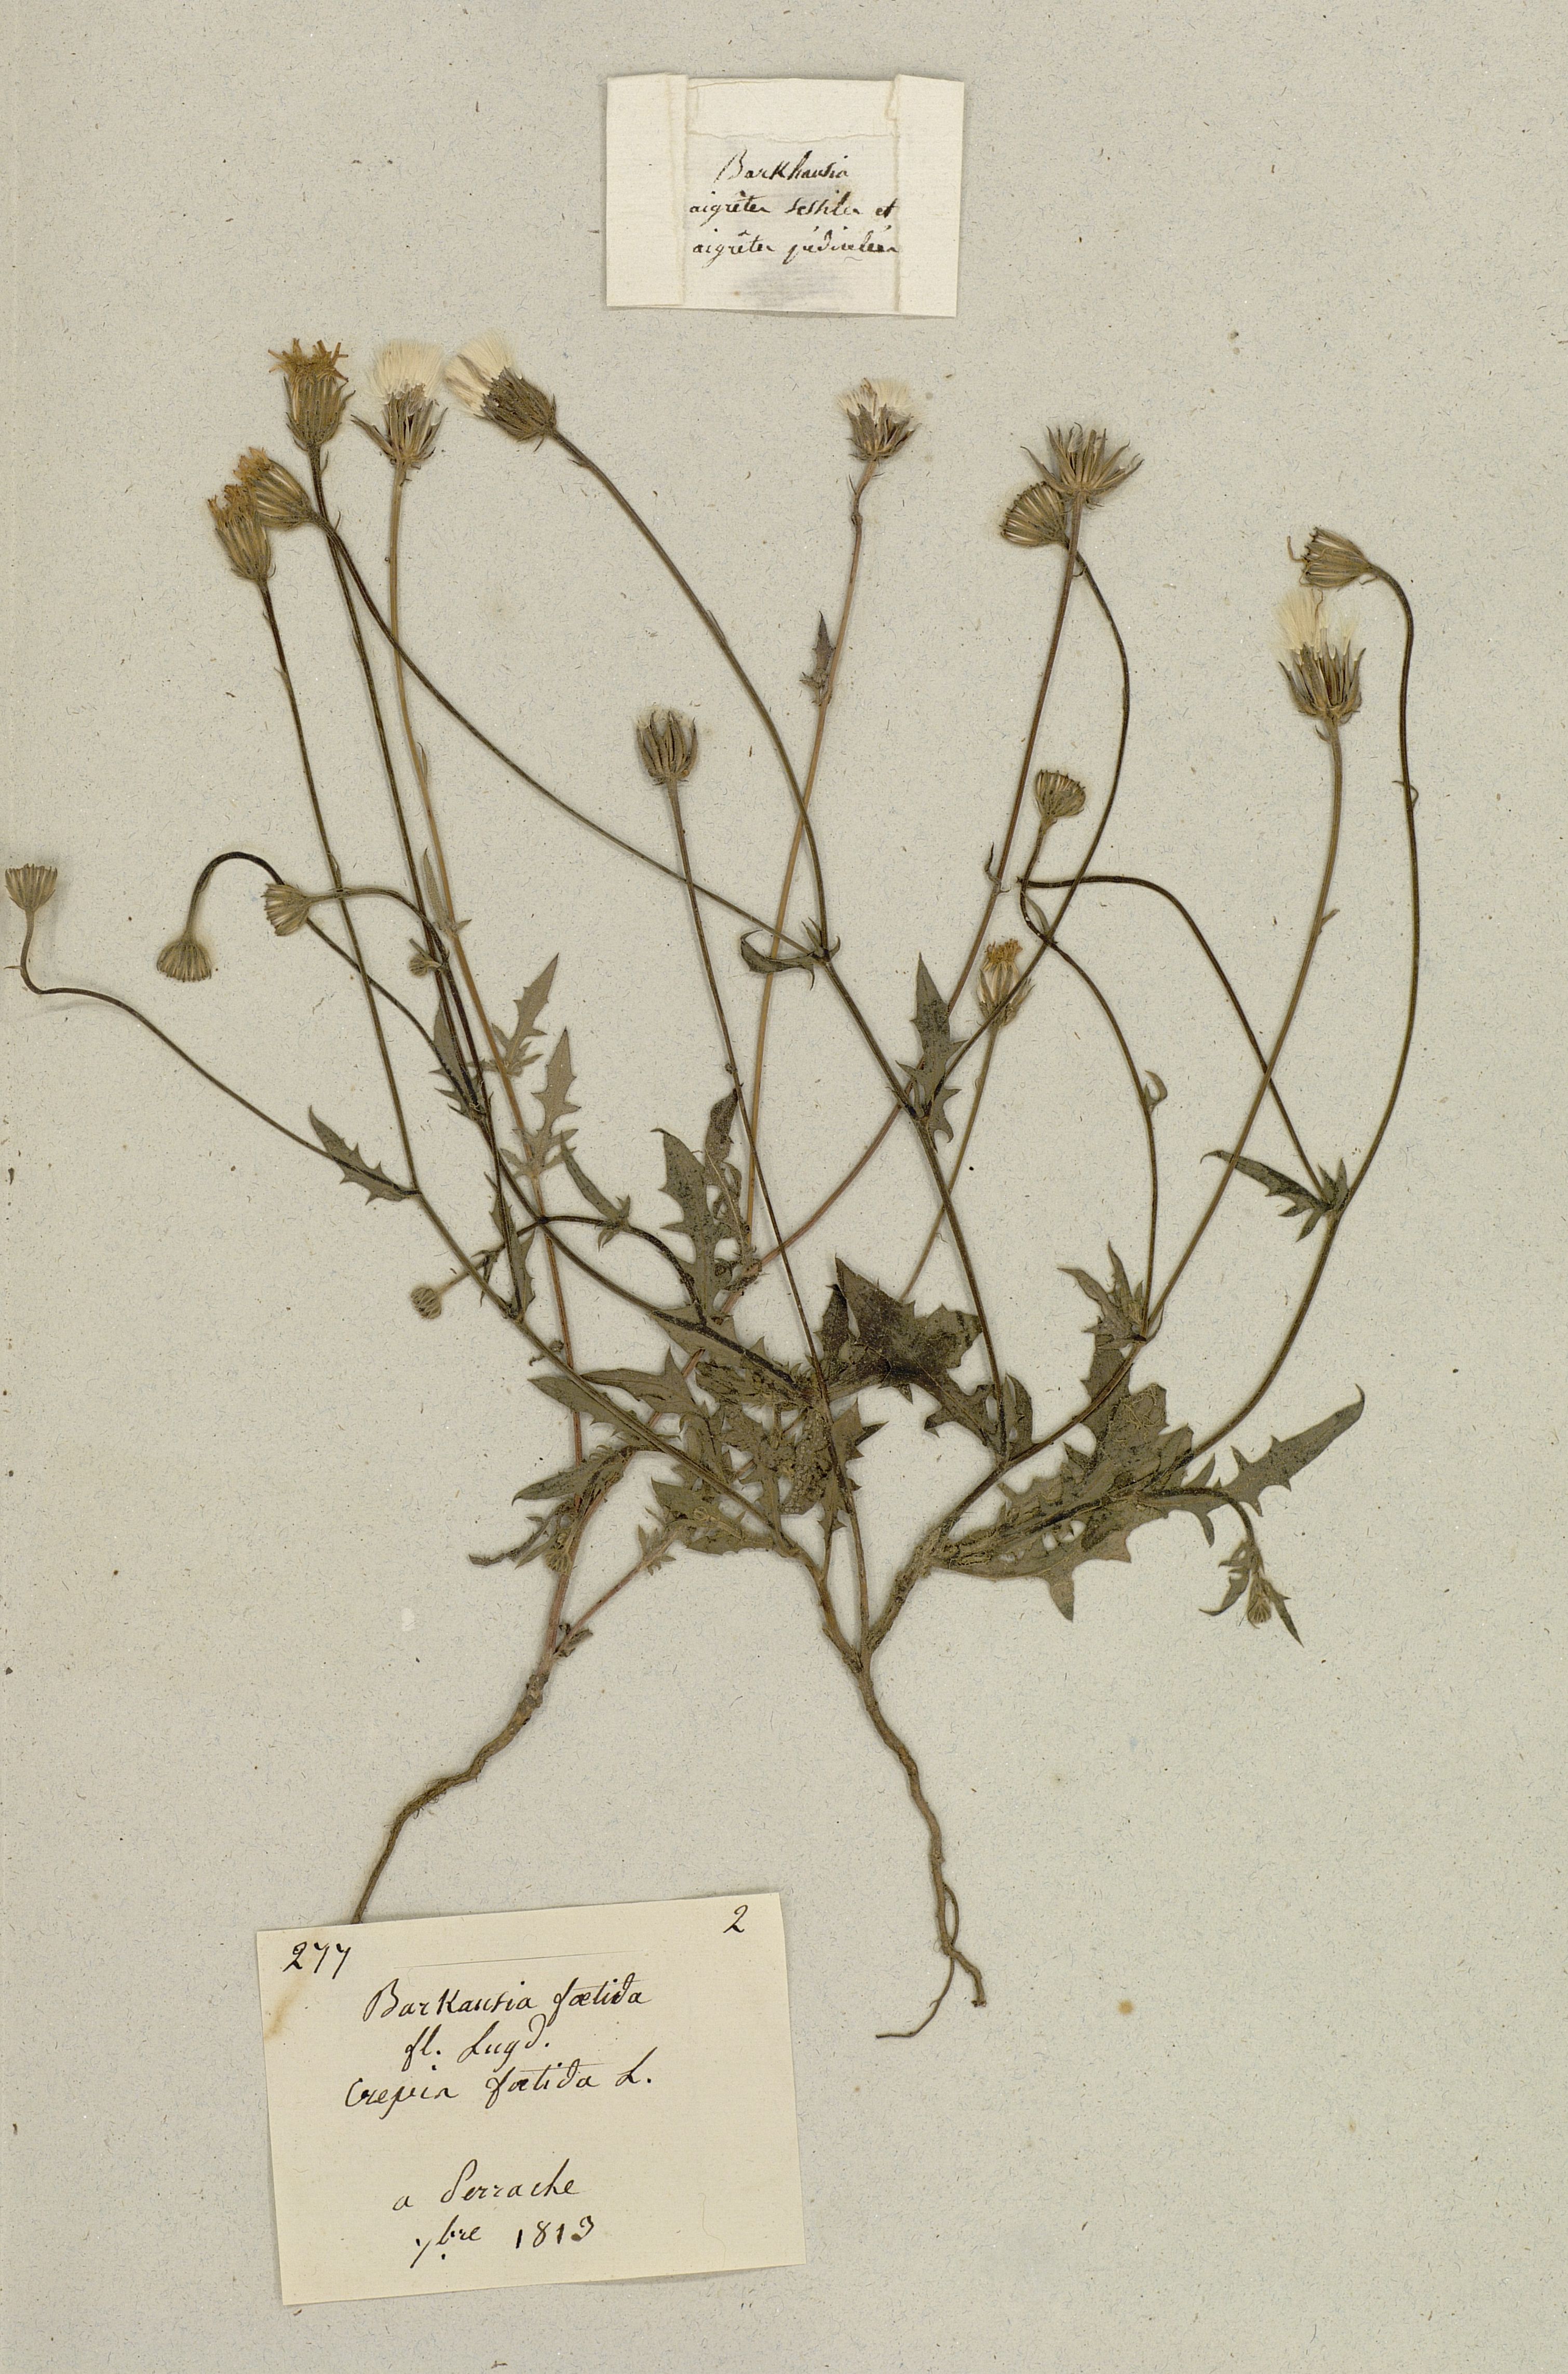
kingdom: Plantae
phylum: Tracheophyta
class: Magnoliopsida
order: Asterales
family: Asteraceae
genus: Crepis
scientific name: Crepis foetida
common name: Stinking hawk's-beard
